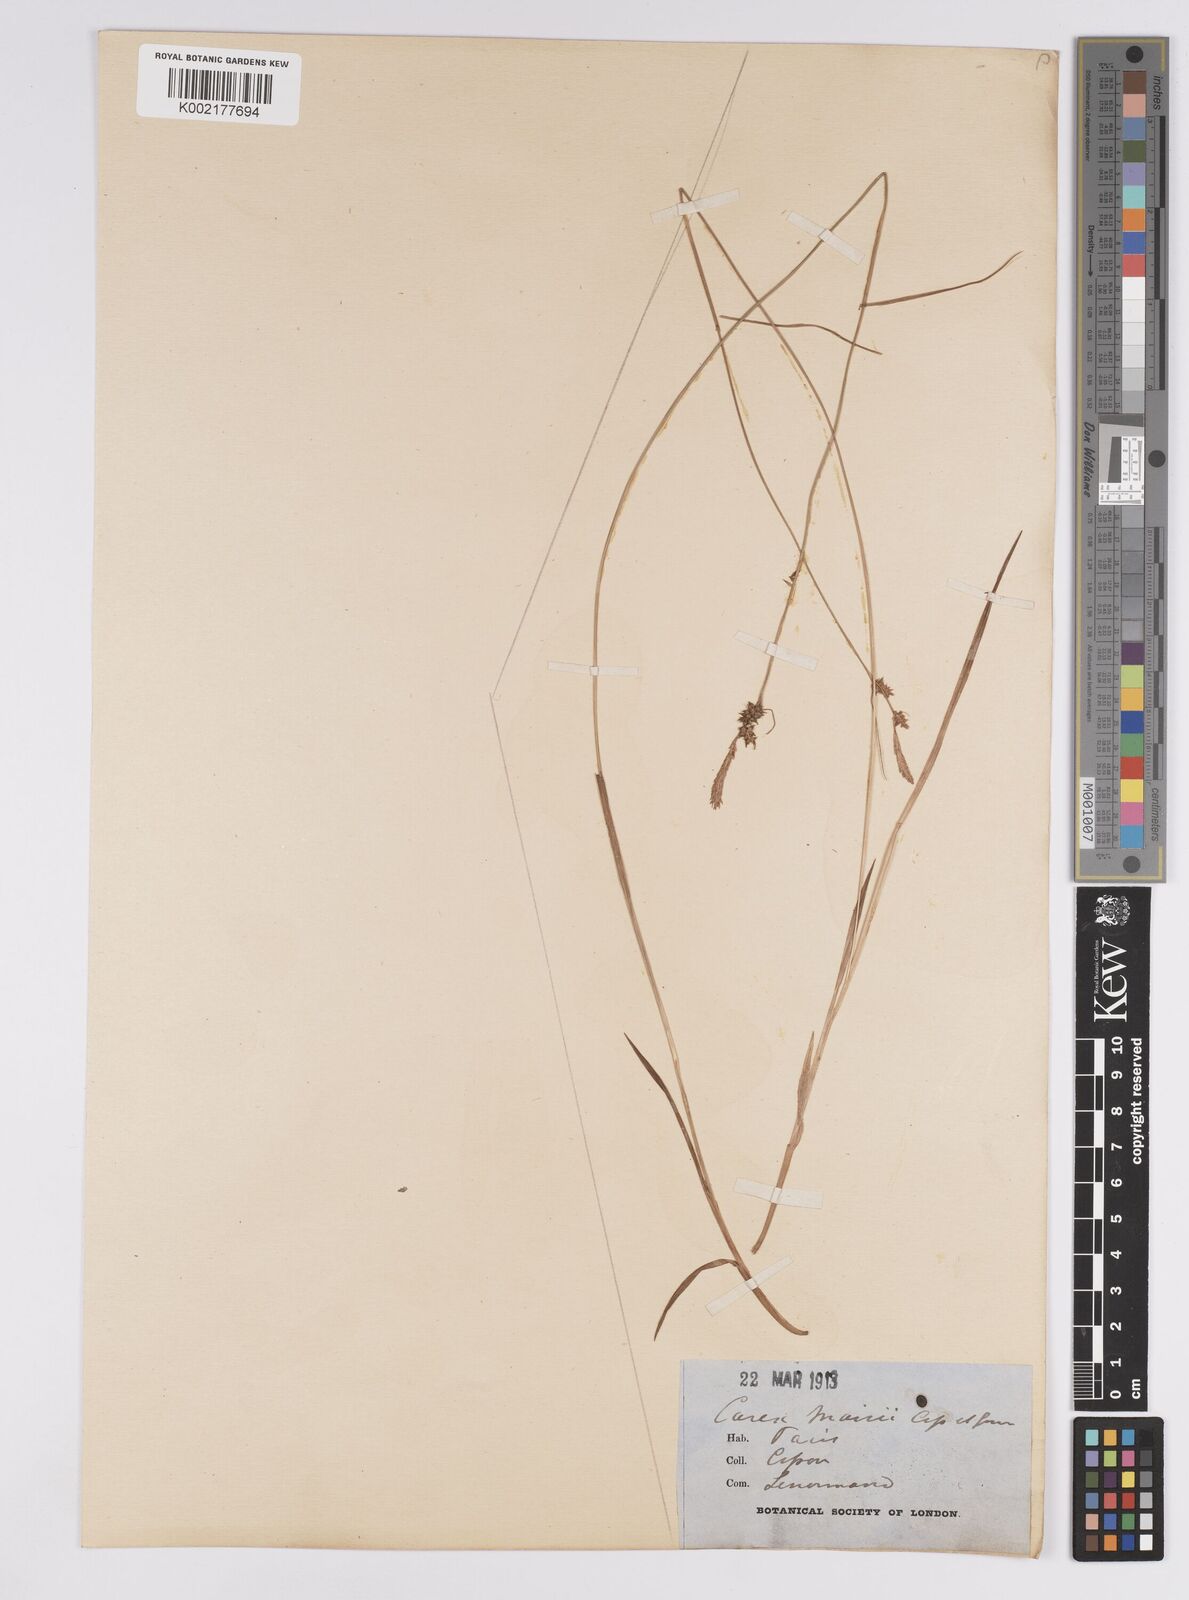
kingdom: Plantae
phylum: Tracheophyta
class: Liliopsida
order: Poales
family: Cyperaceae
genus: Carex
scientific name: Carex mairei
